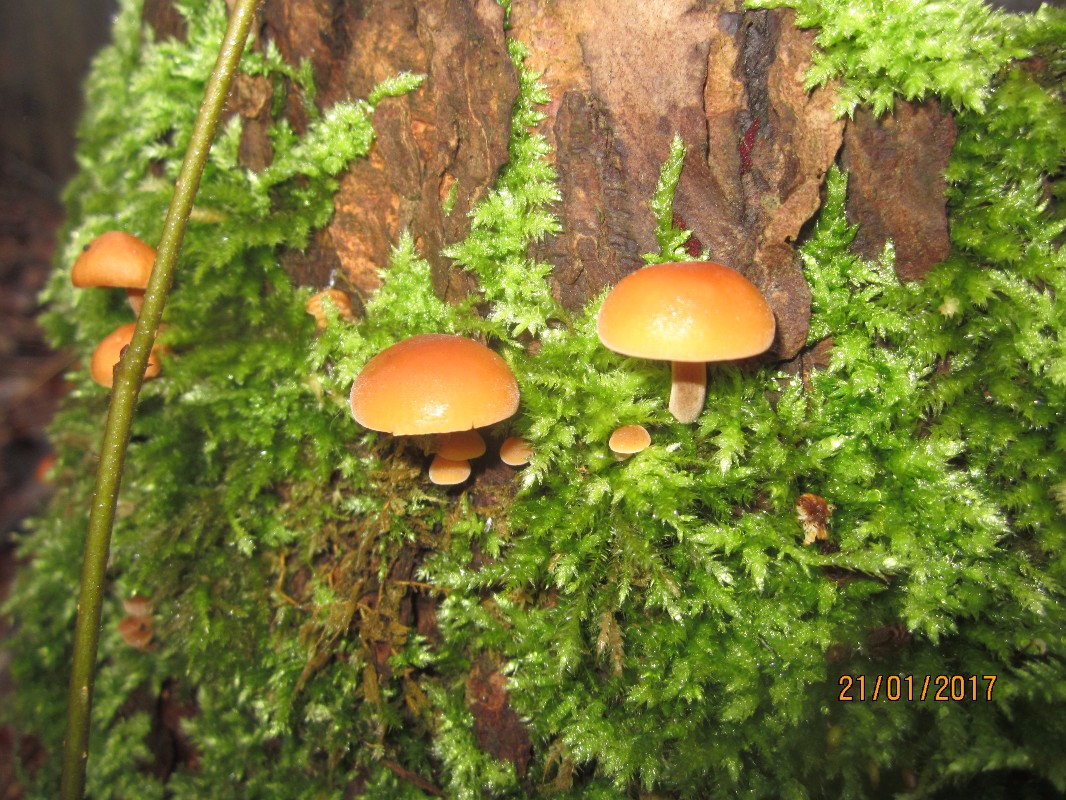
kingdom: Fungi
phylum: Basidiomycota
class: Agaricomycetes
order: Agaricales
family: Physalacriaceae
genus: Flammulina
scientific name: Flammulina
